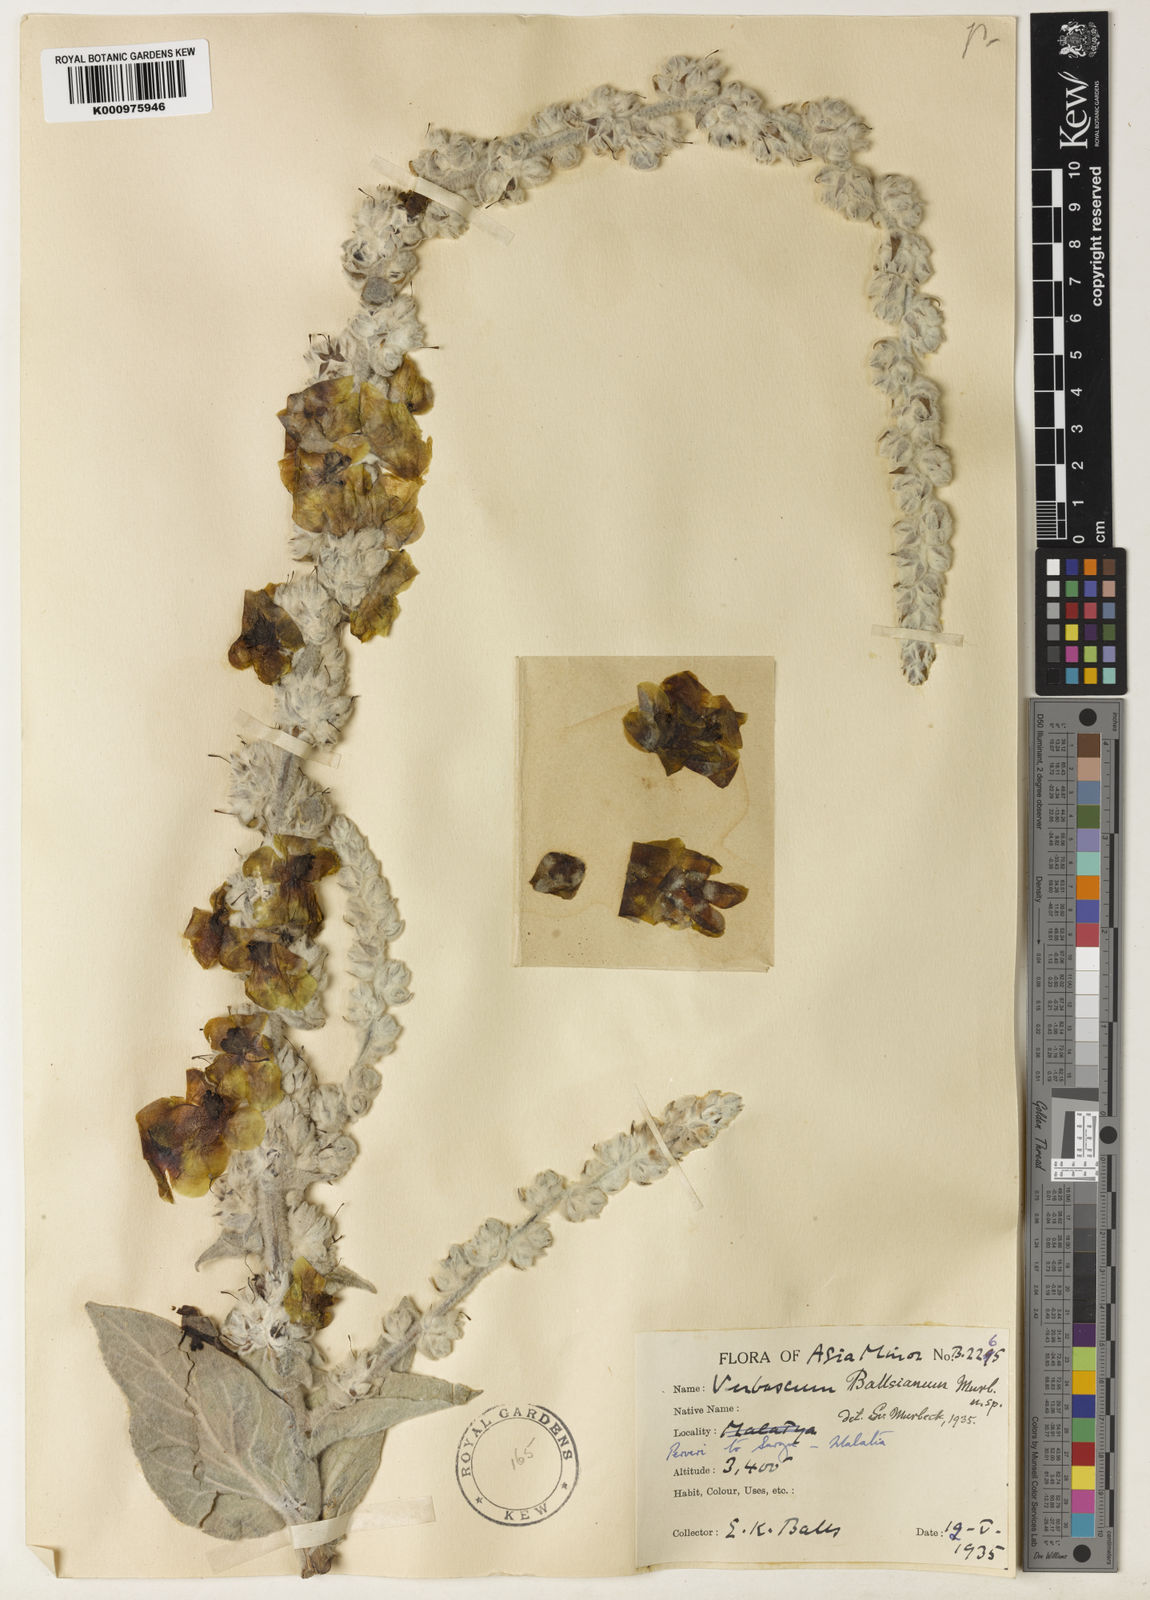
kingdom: Plantae
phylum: Tracheophyta
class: Magnoliopsida
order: Lamiales
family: Scrophulariaceae
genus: Verbascum
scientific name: Verbascum ballsianum
